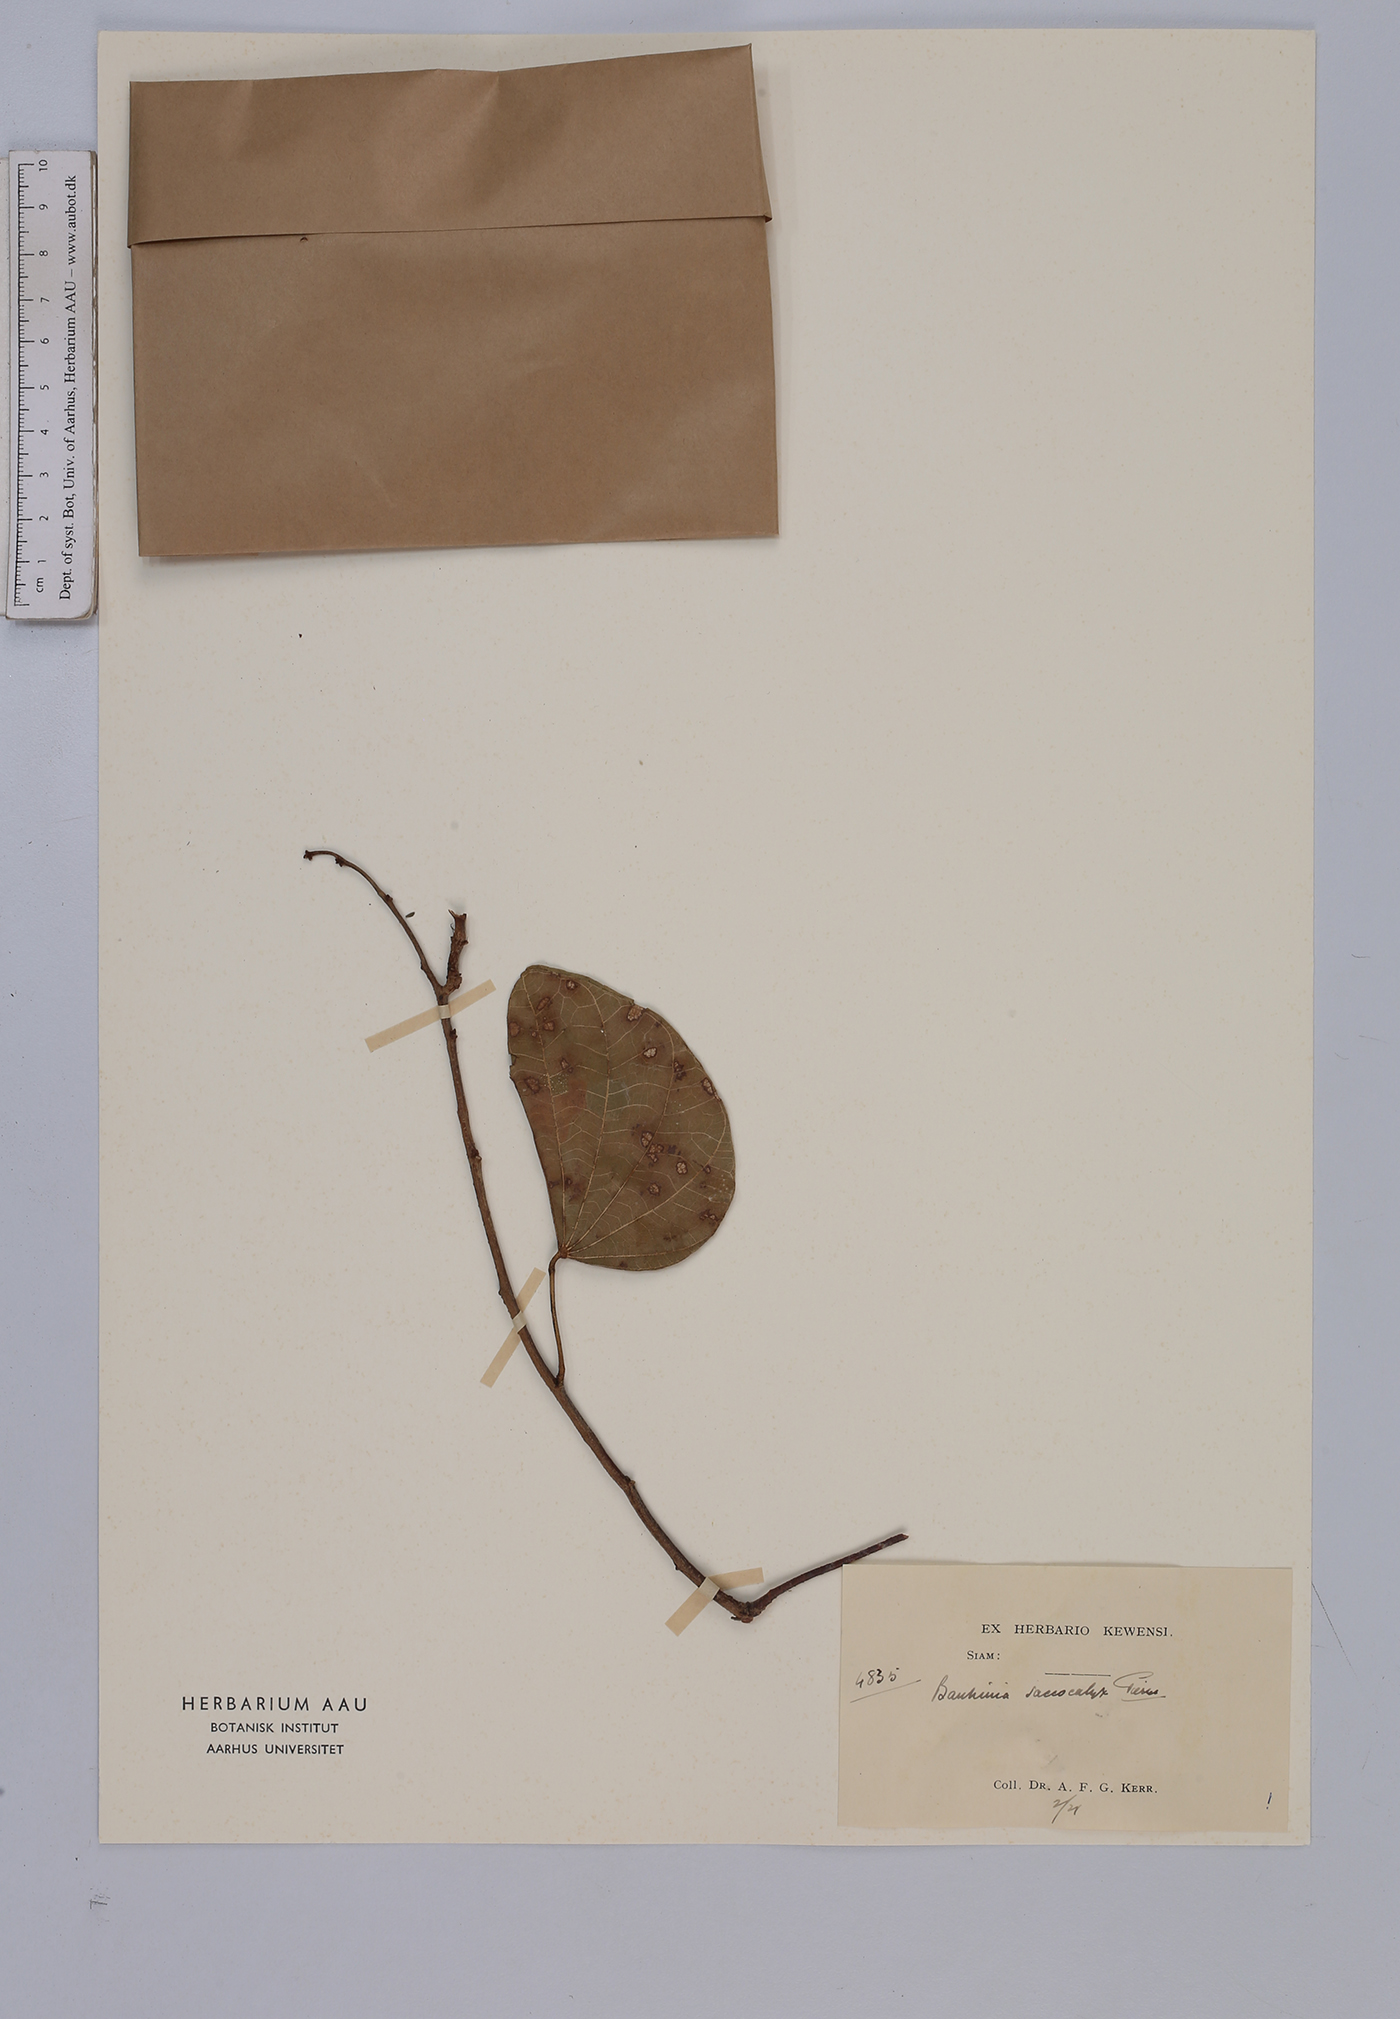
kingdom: Plantae
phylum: Tracheophyta
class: Magnoliopsida
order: Fabales
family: Fabaceae
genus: Bauhinia
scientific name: Bauhinia saccocalyx
